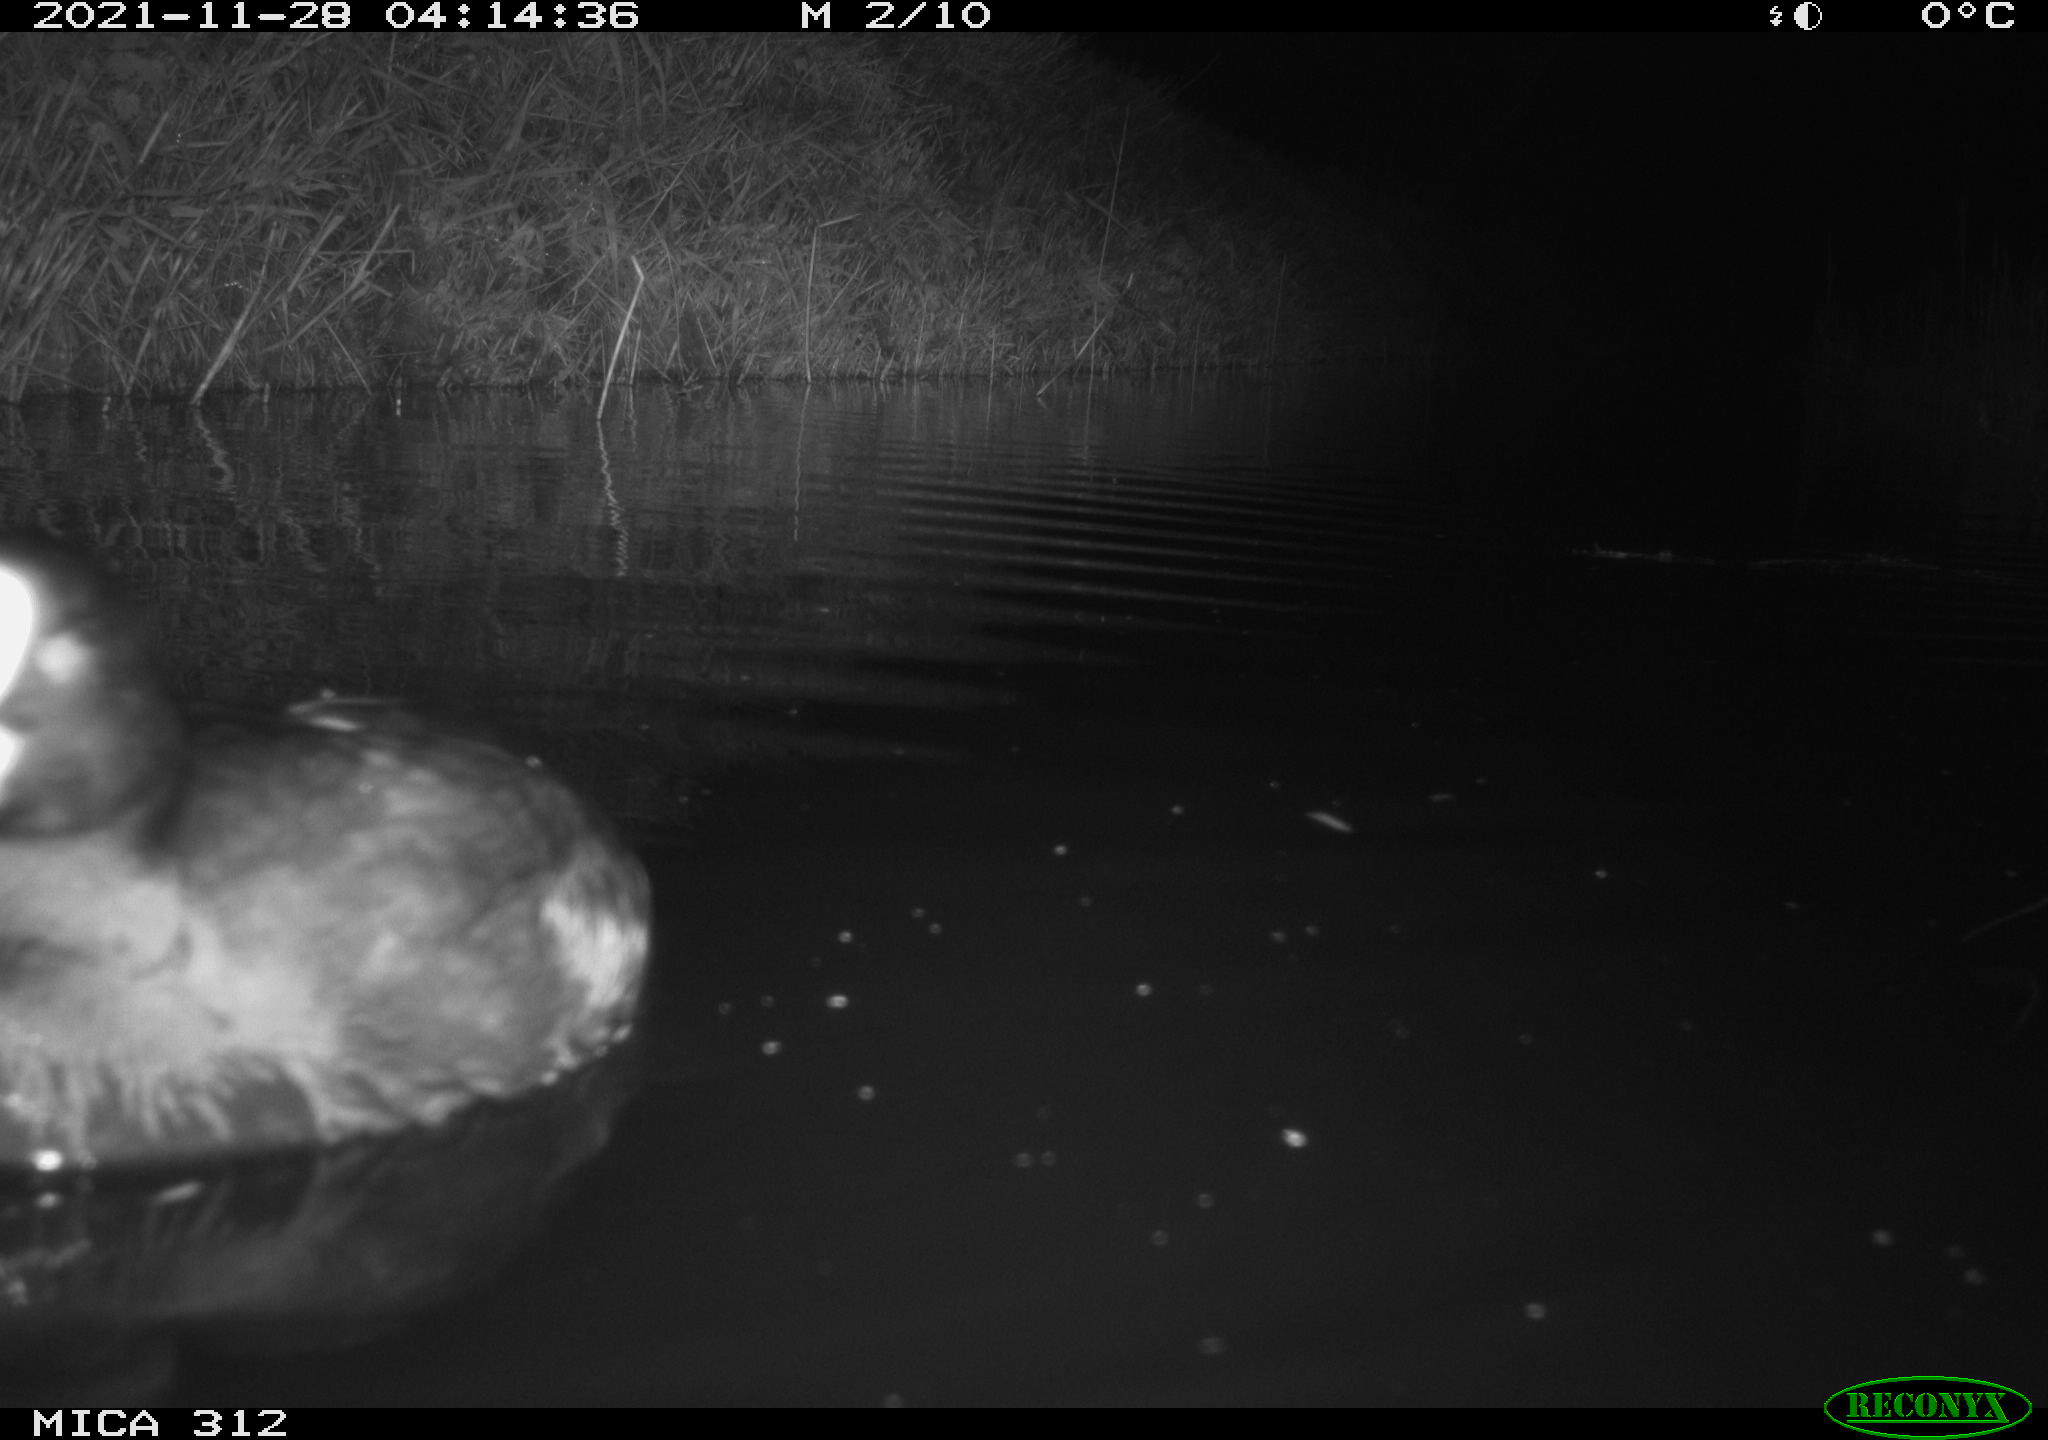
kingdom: Animalia
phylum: Chordata
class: Aves
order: Anseriformes
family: Anatidae
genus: Anas
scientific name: Anas
